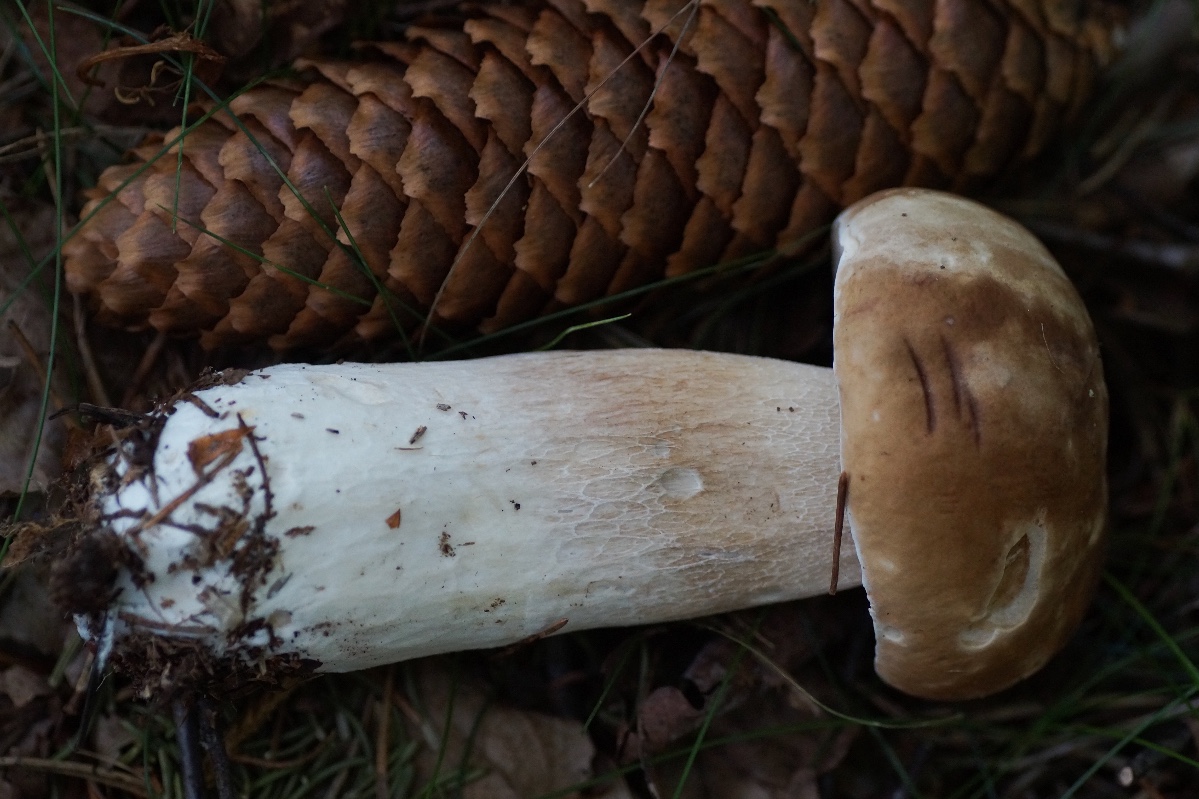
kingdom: Fungi
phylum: Basidiomycota
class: Agaricomycetes
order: Boletales
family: Boletaceae
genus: Boletus
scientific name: Boletus edulis
